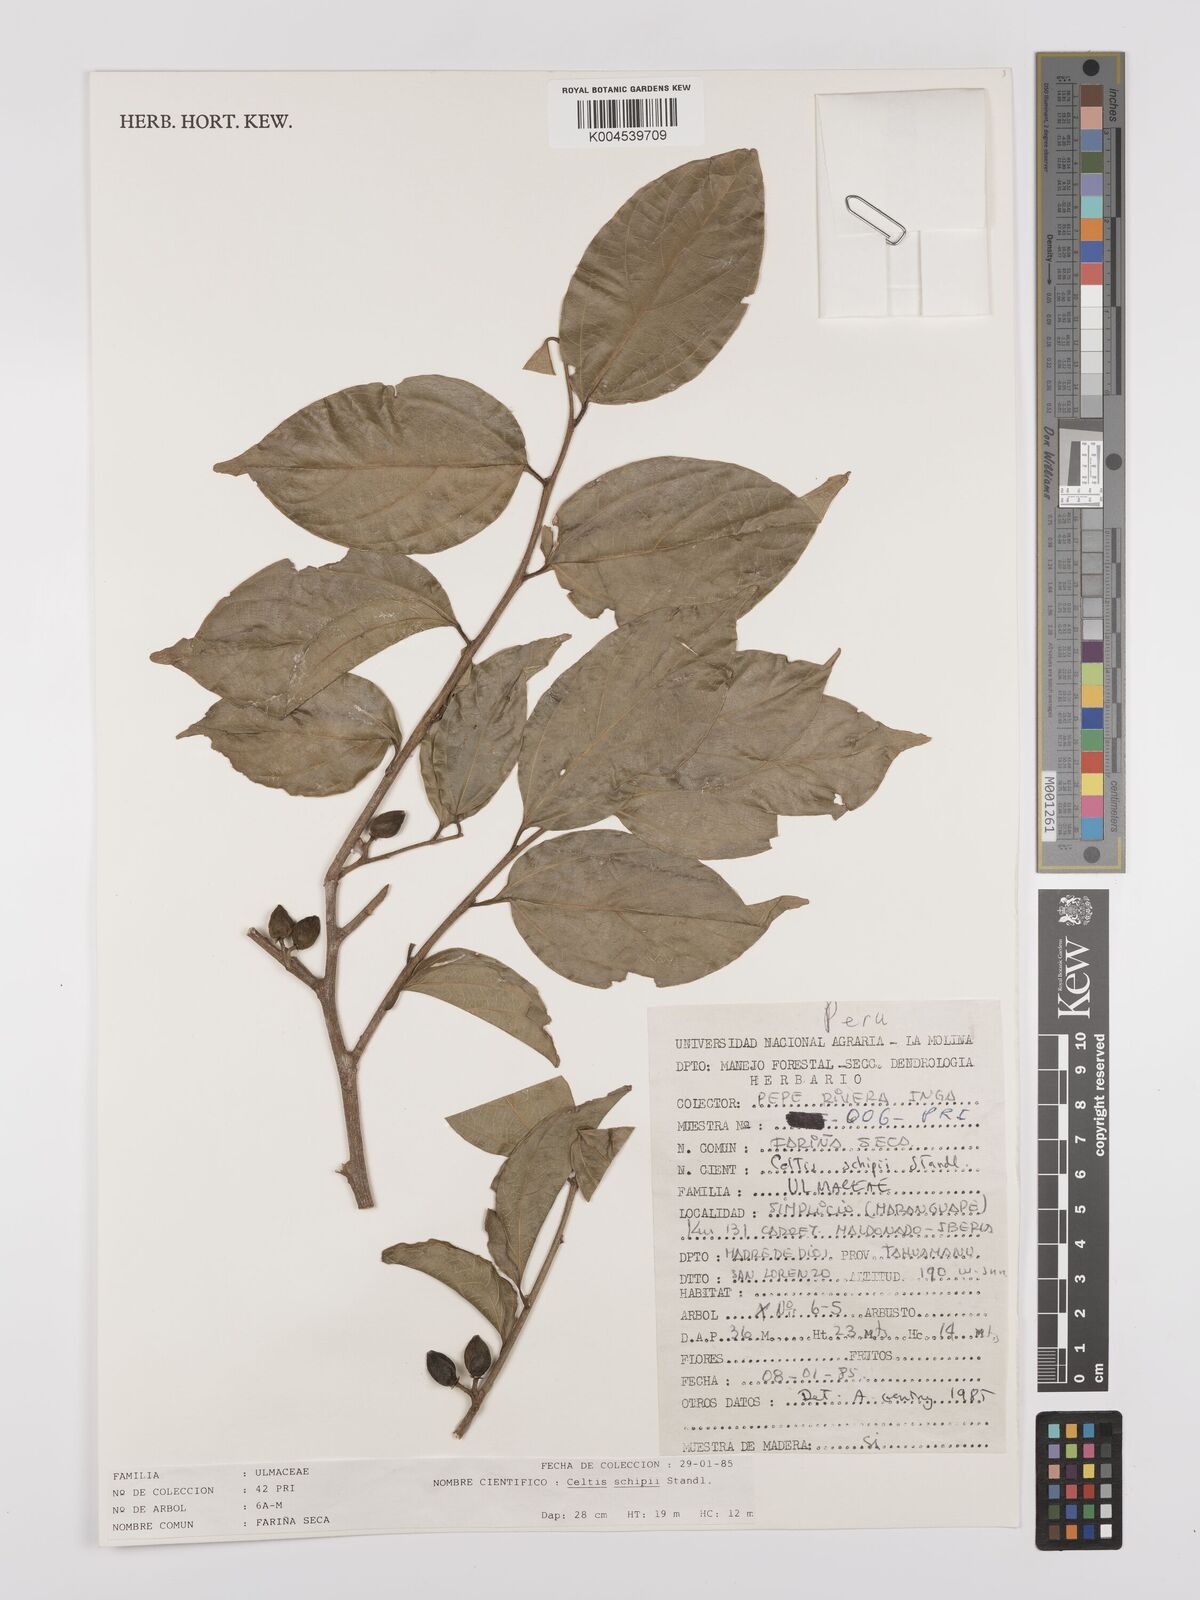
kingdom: Plantae
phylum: Tracheophyta
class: Magnoliopsida
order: Rosales
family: Cannabaceae
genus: Celtis
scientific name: Celtis schippii
